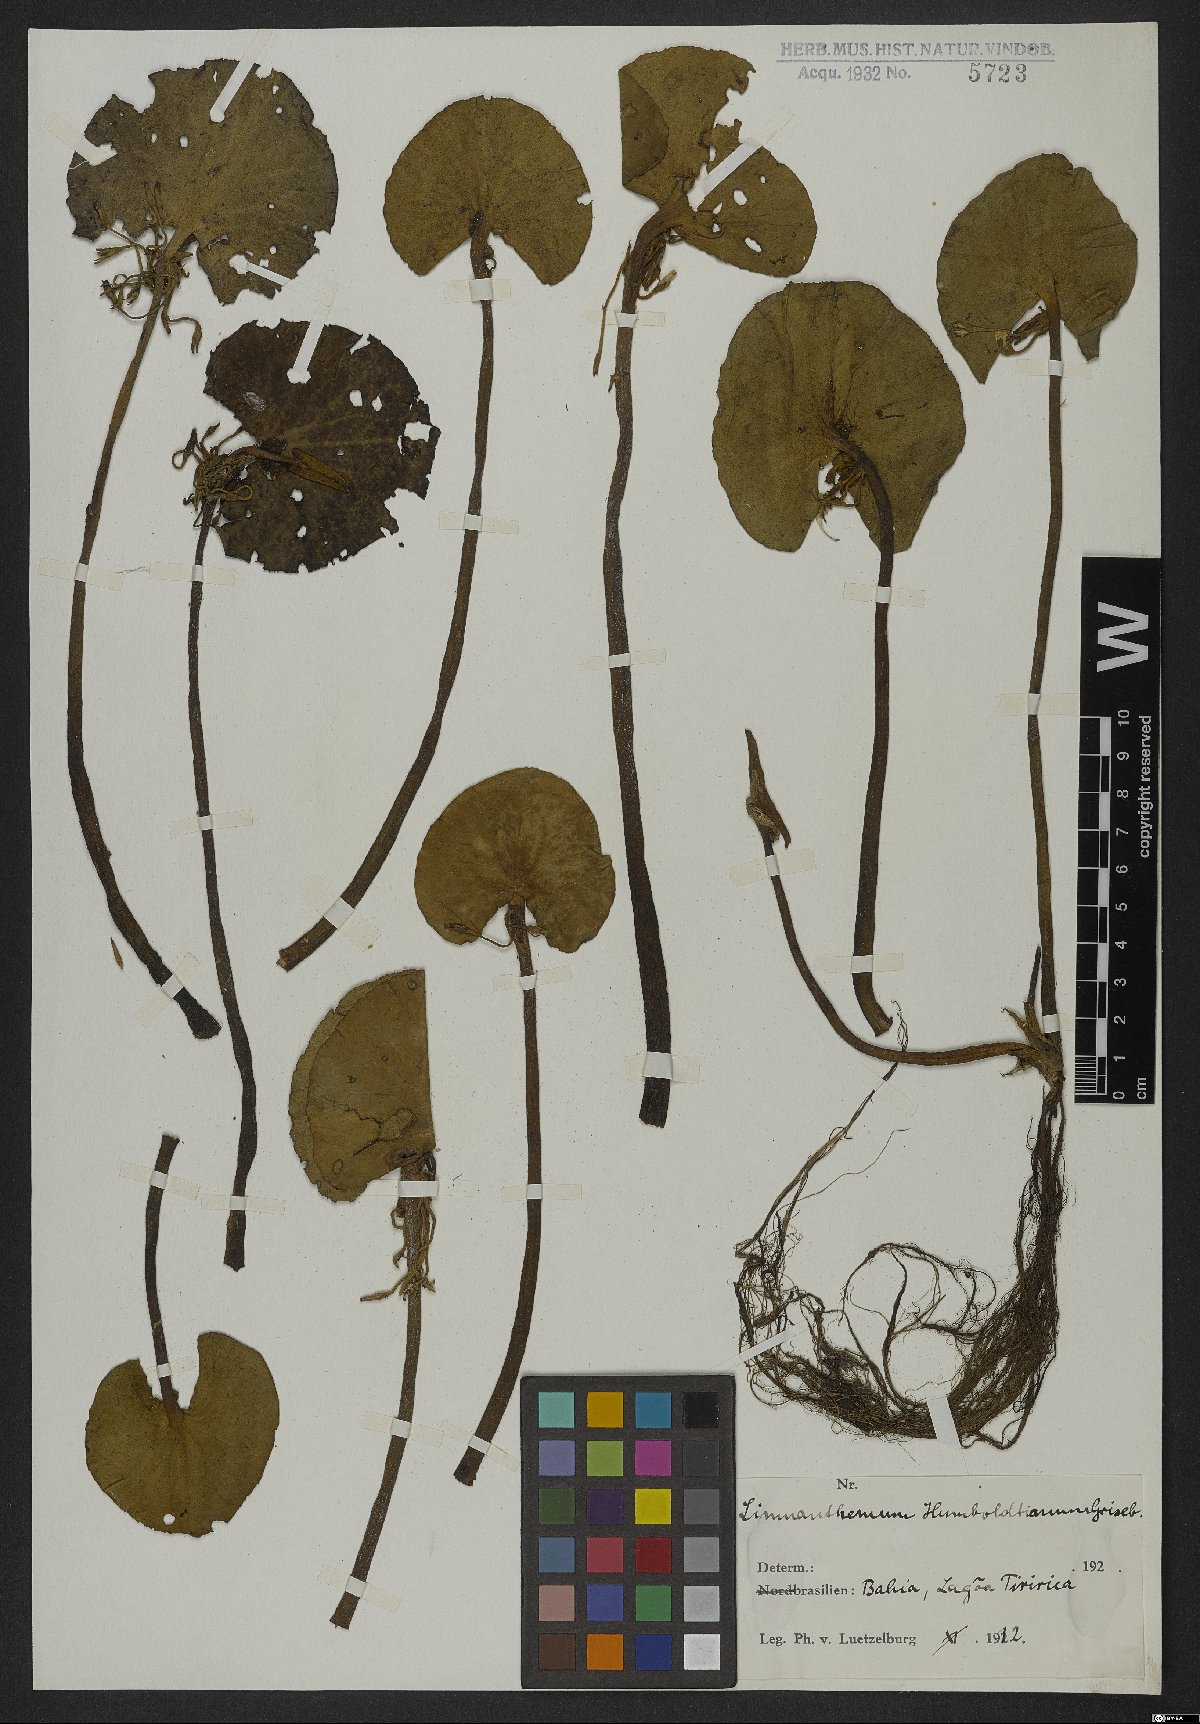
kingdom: Plantae
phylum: Tracheophyta
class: Magnoliopsida
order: Asterales
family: Menyanthaceae
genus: Nymphoides
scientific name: Nymphoides humboldtiana
